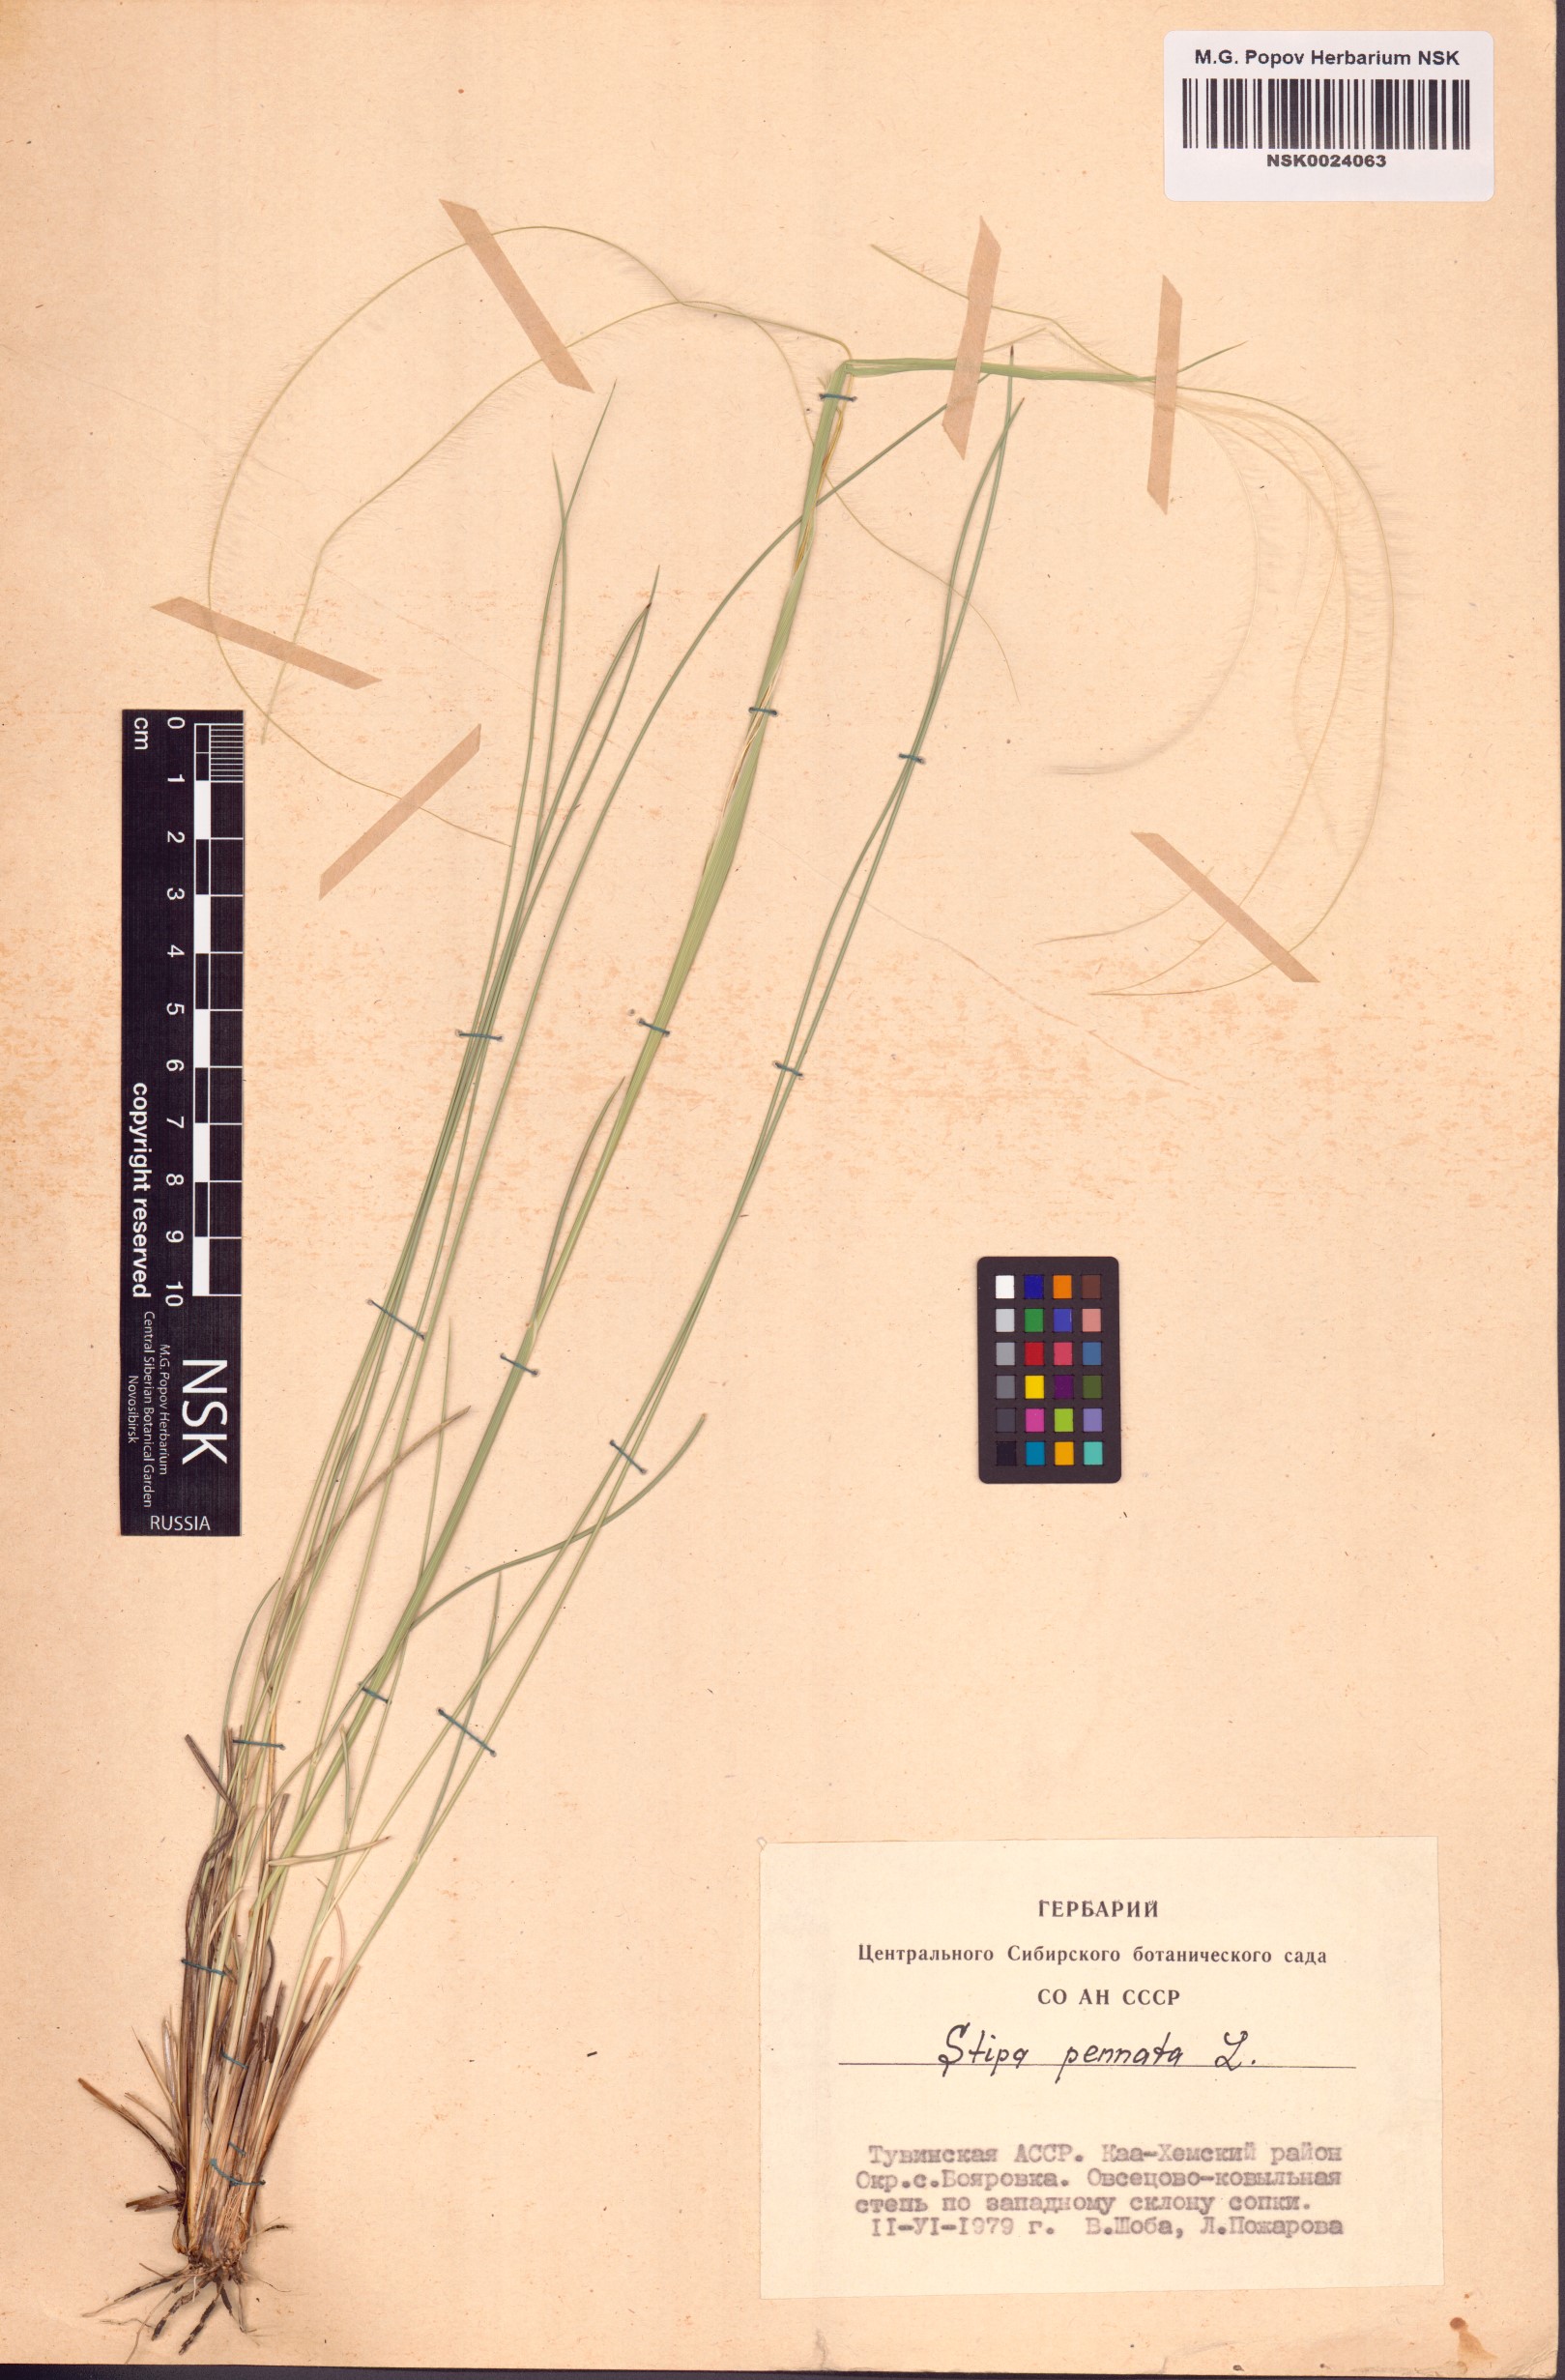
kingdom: Plantae
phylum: Tracheophyta
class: Liliopsida
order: Poales
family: Poaceae
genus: Stipa
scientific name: Stipa pennata
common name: European feather grass
